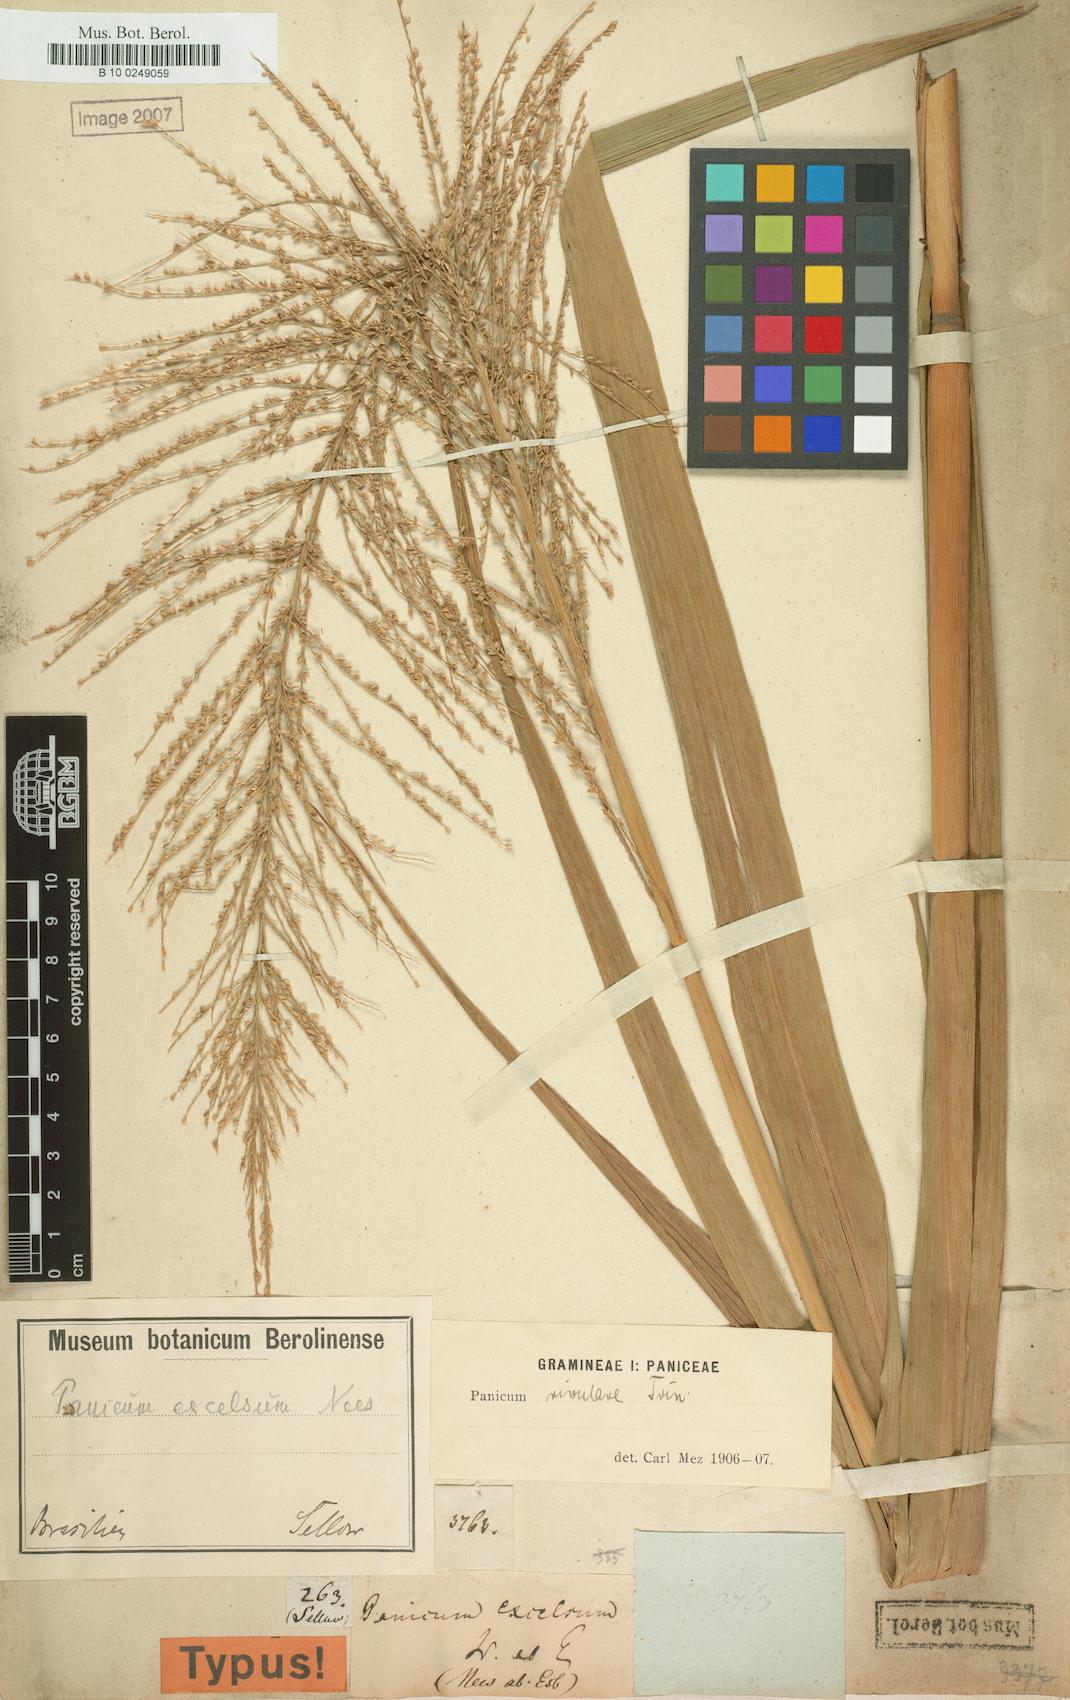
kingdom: Plantae
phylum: Tracheophyta
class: Liliopsida
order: Poales
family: Poaceae
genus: Hymenachne
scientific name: Hymenachne pernambucensis
